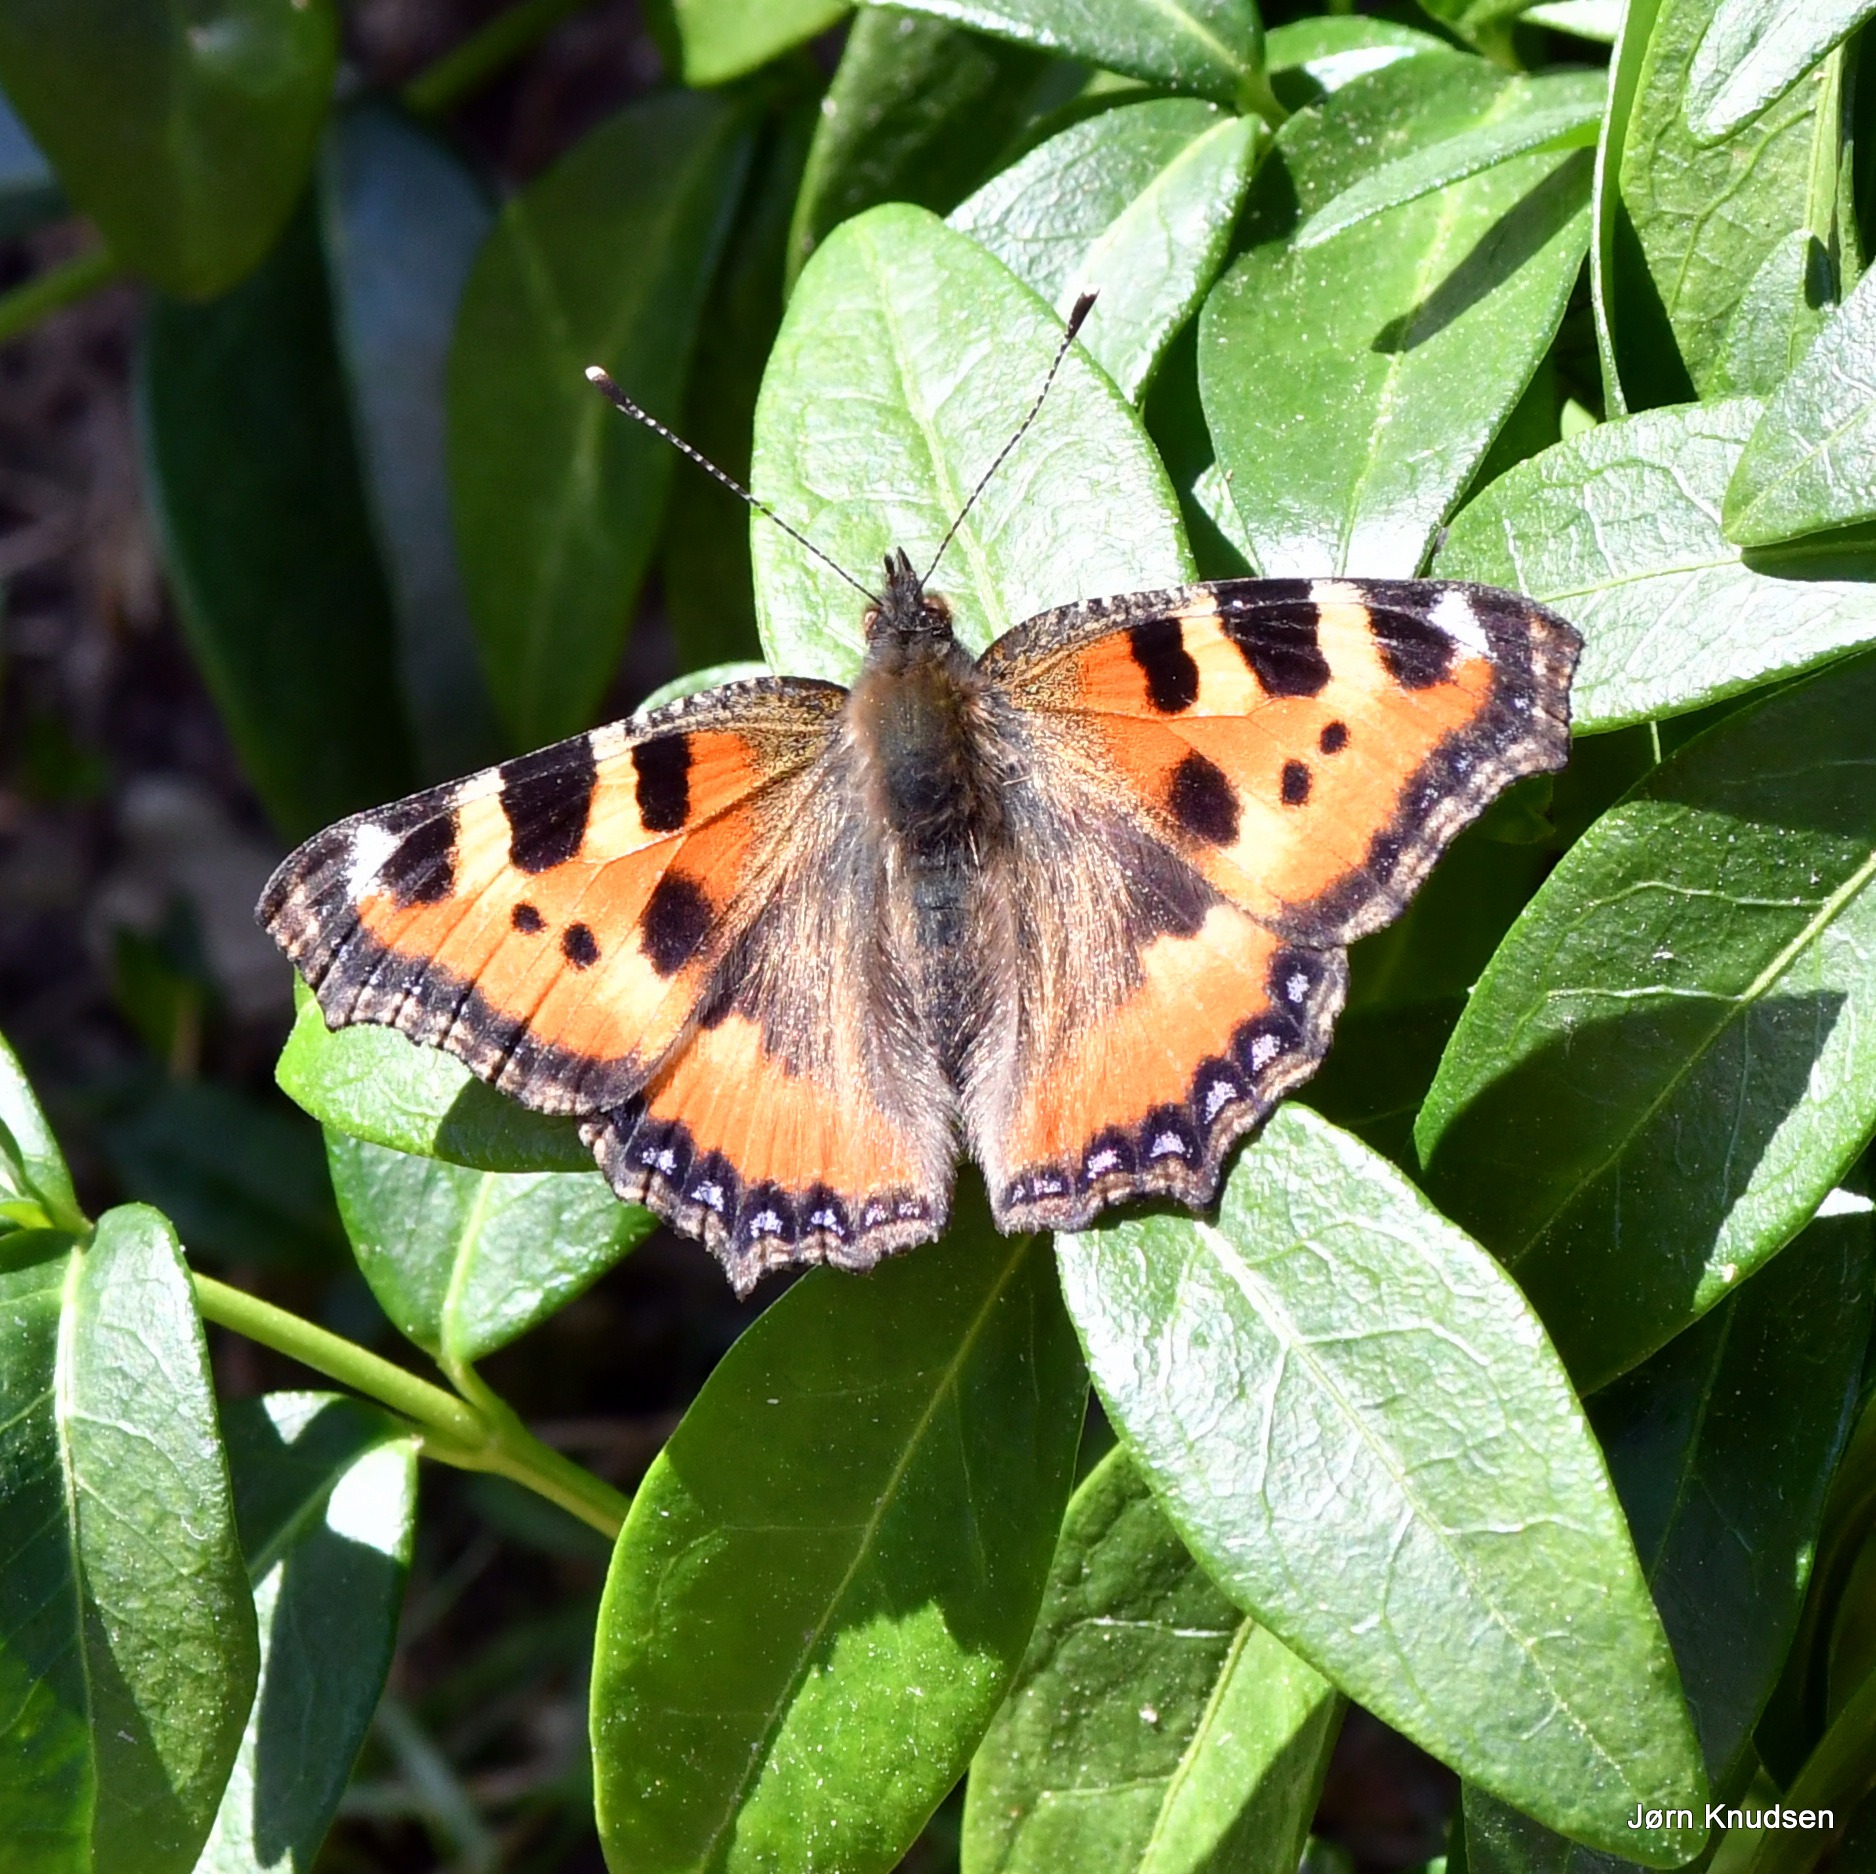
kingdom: Animalia
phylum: Arthropoda
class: Insecta
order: Lepidoptera
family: Nymphalidae
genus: Aglais
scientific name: Aglais urticae
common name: Nældens takvinge
